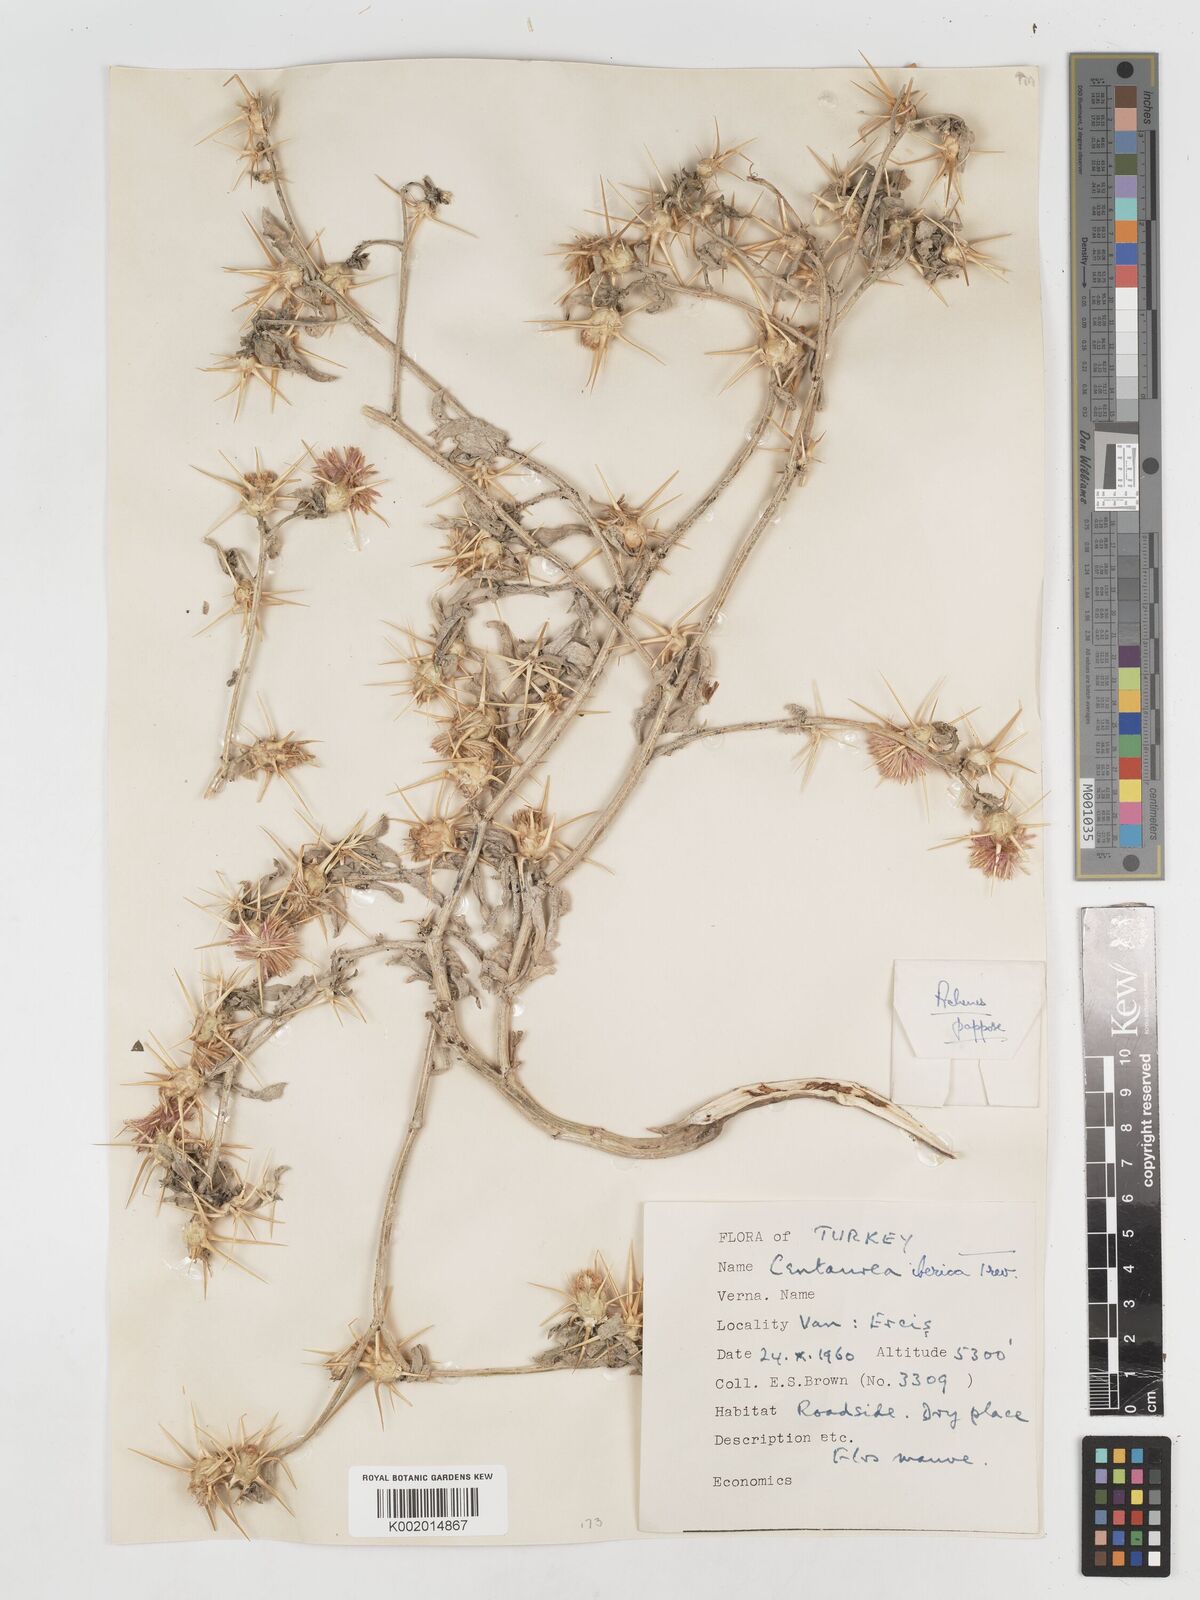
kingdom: Plantae
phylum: Tracheophyta
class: Magnoliopsida
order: Asterales
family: Asteraceae
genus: Centaurea
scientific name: Centaurea iberica
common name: Iberian knapweed
